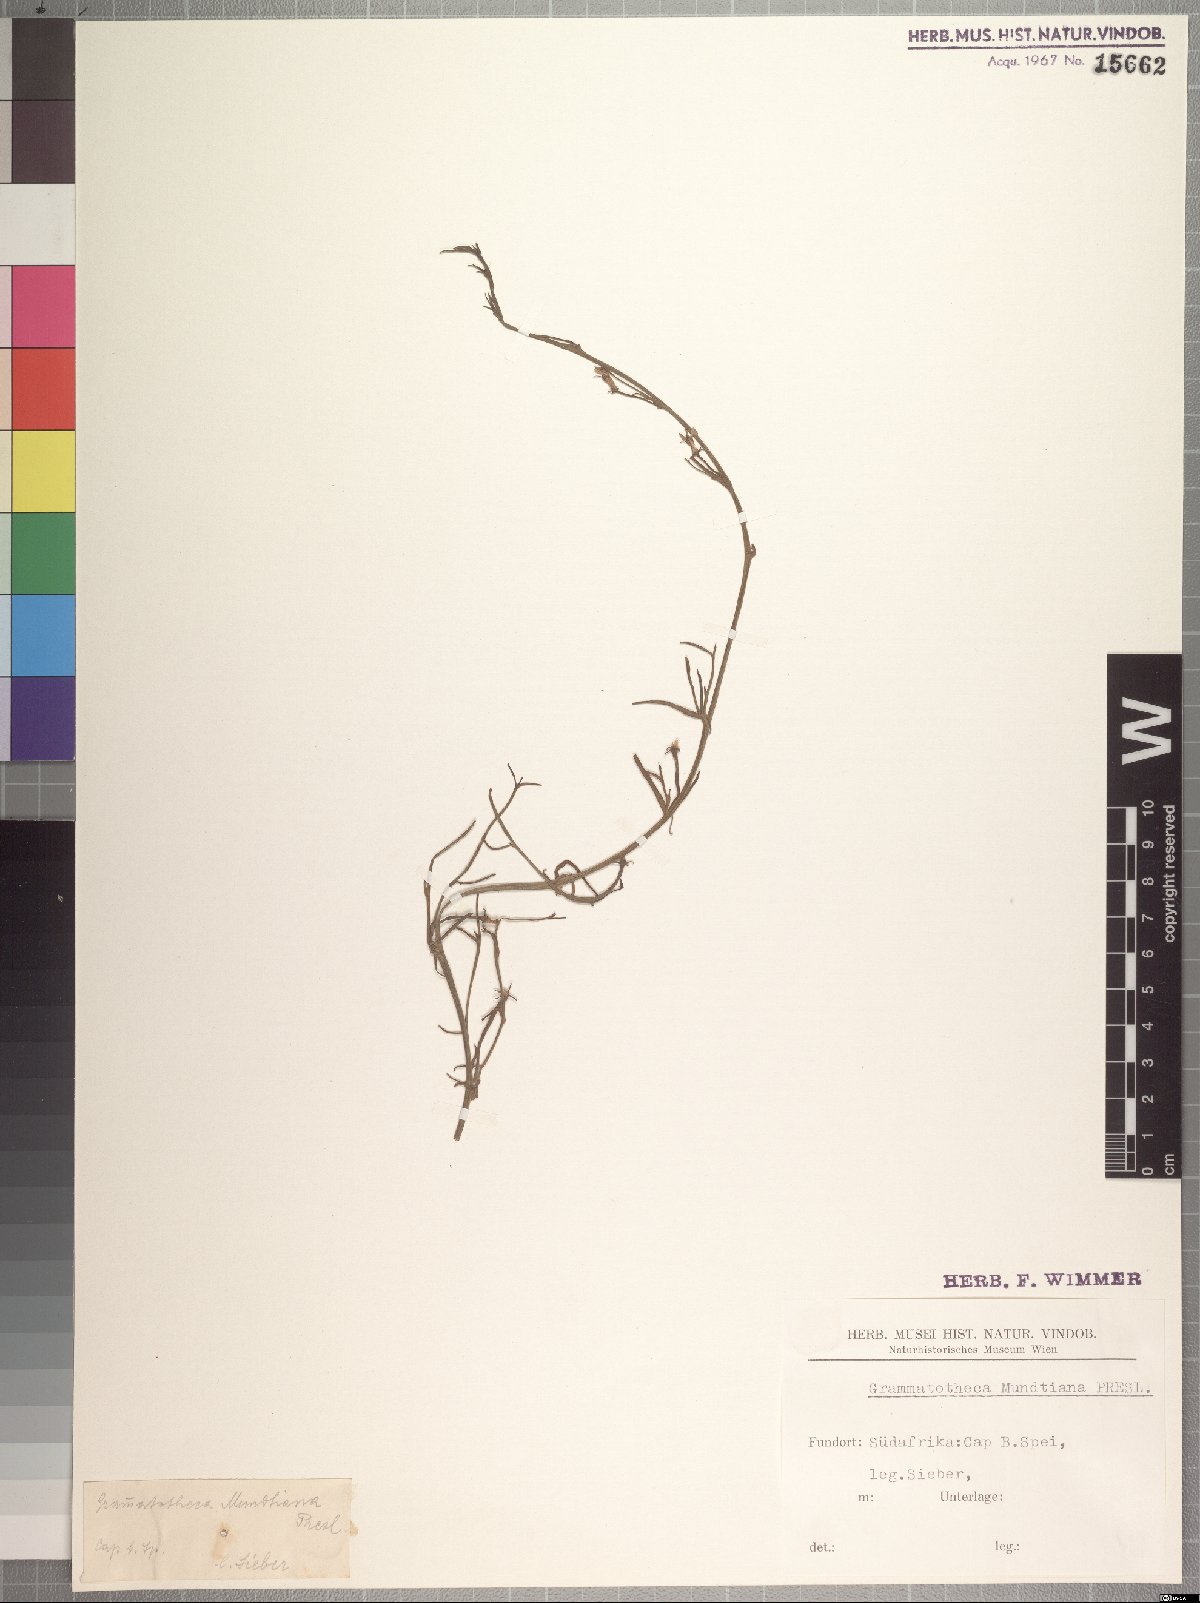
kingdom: Plantae
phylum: Tracheophyta
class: Magnoliopsida
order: Asterales
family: Campanulaceae
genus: Grammatotheca
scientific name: Grammatotheca bergiana
